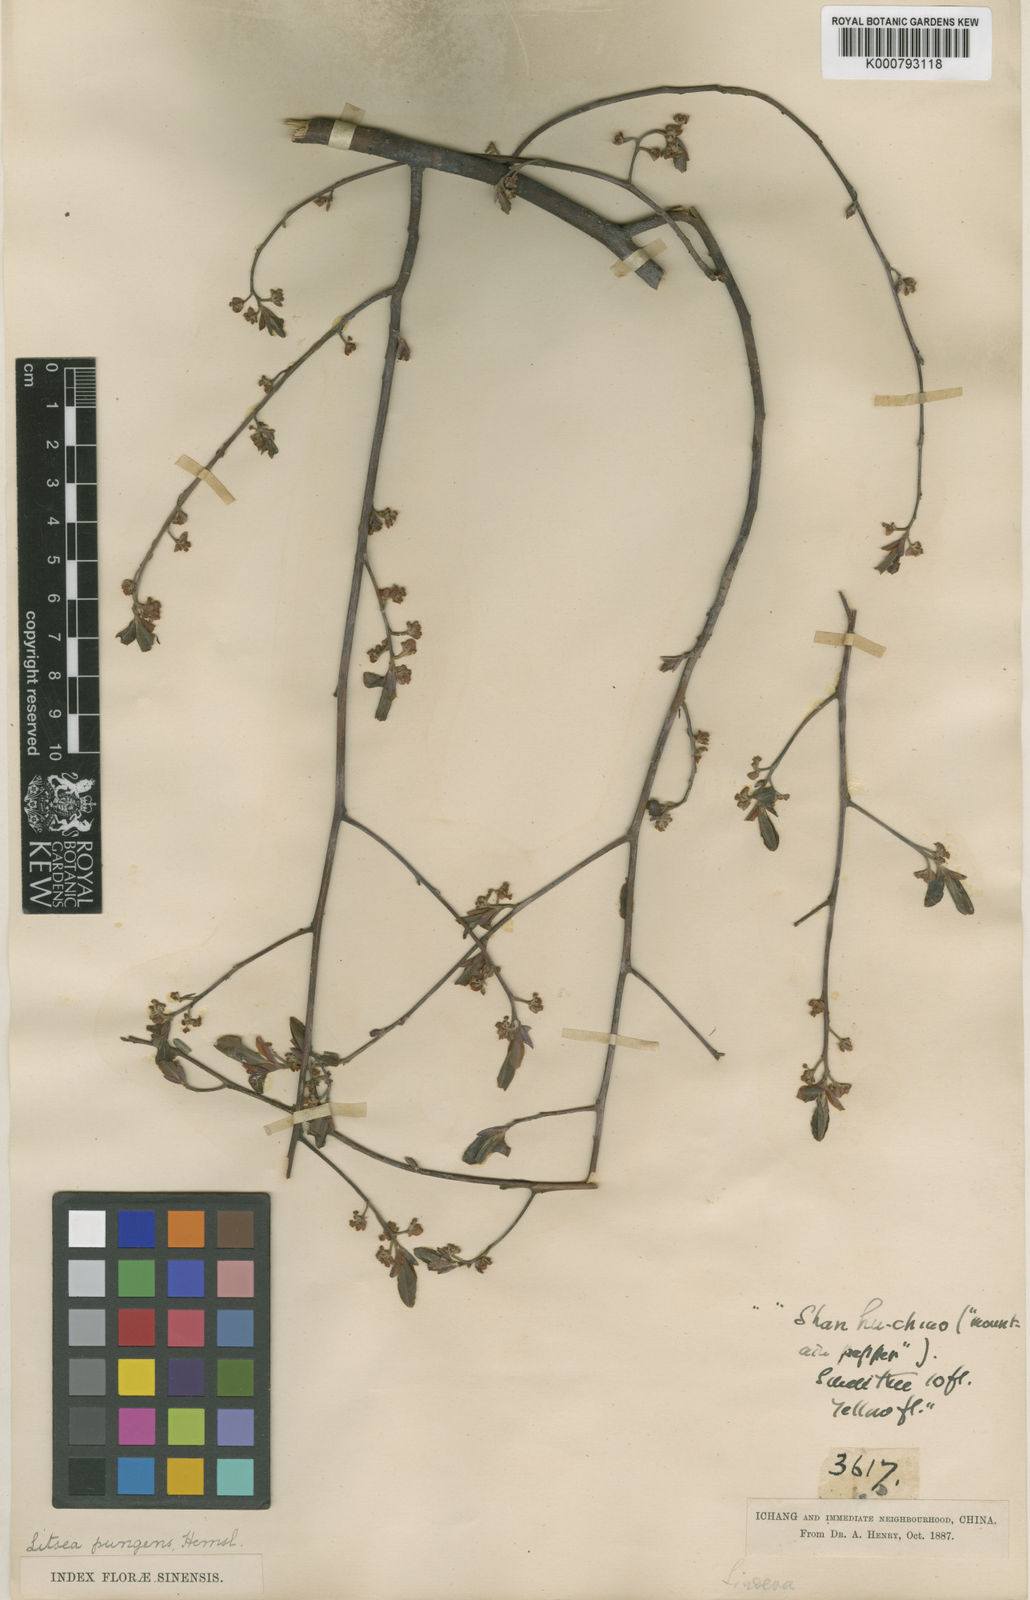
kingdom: Plantae
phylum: Tracheophyta
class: Magnoliopsida
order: Laurales
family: Lauraceae
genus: Litsea
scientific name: Litsea pungens
